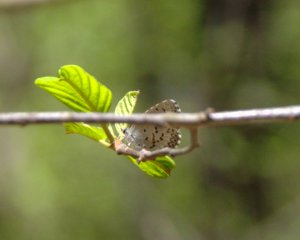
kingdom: Animalia
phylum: Arthropoda
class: Insecta
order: Lepidoptera
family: Lycaenidae
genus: Celastrina
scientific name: Celastrina lucia
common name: Northern Spring Azure
